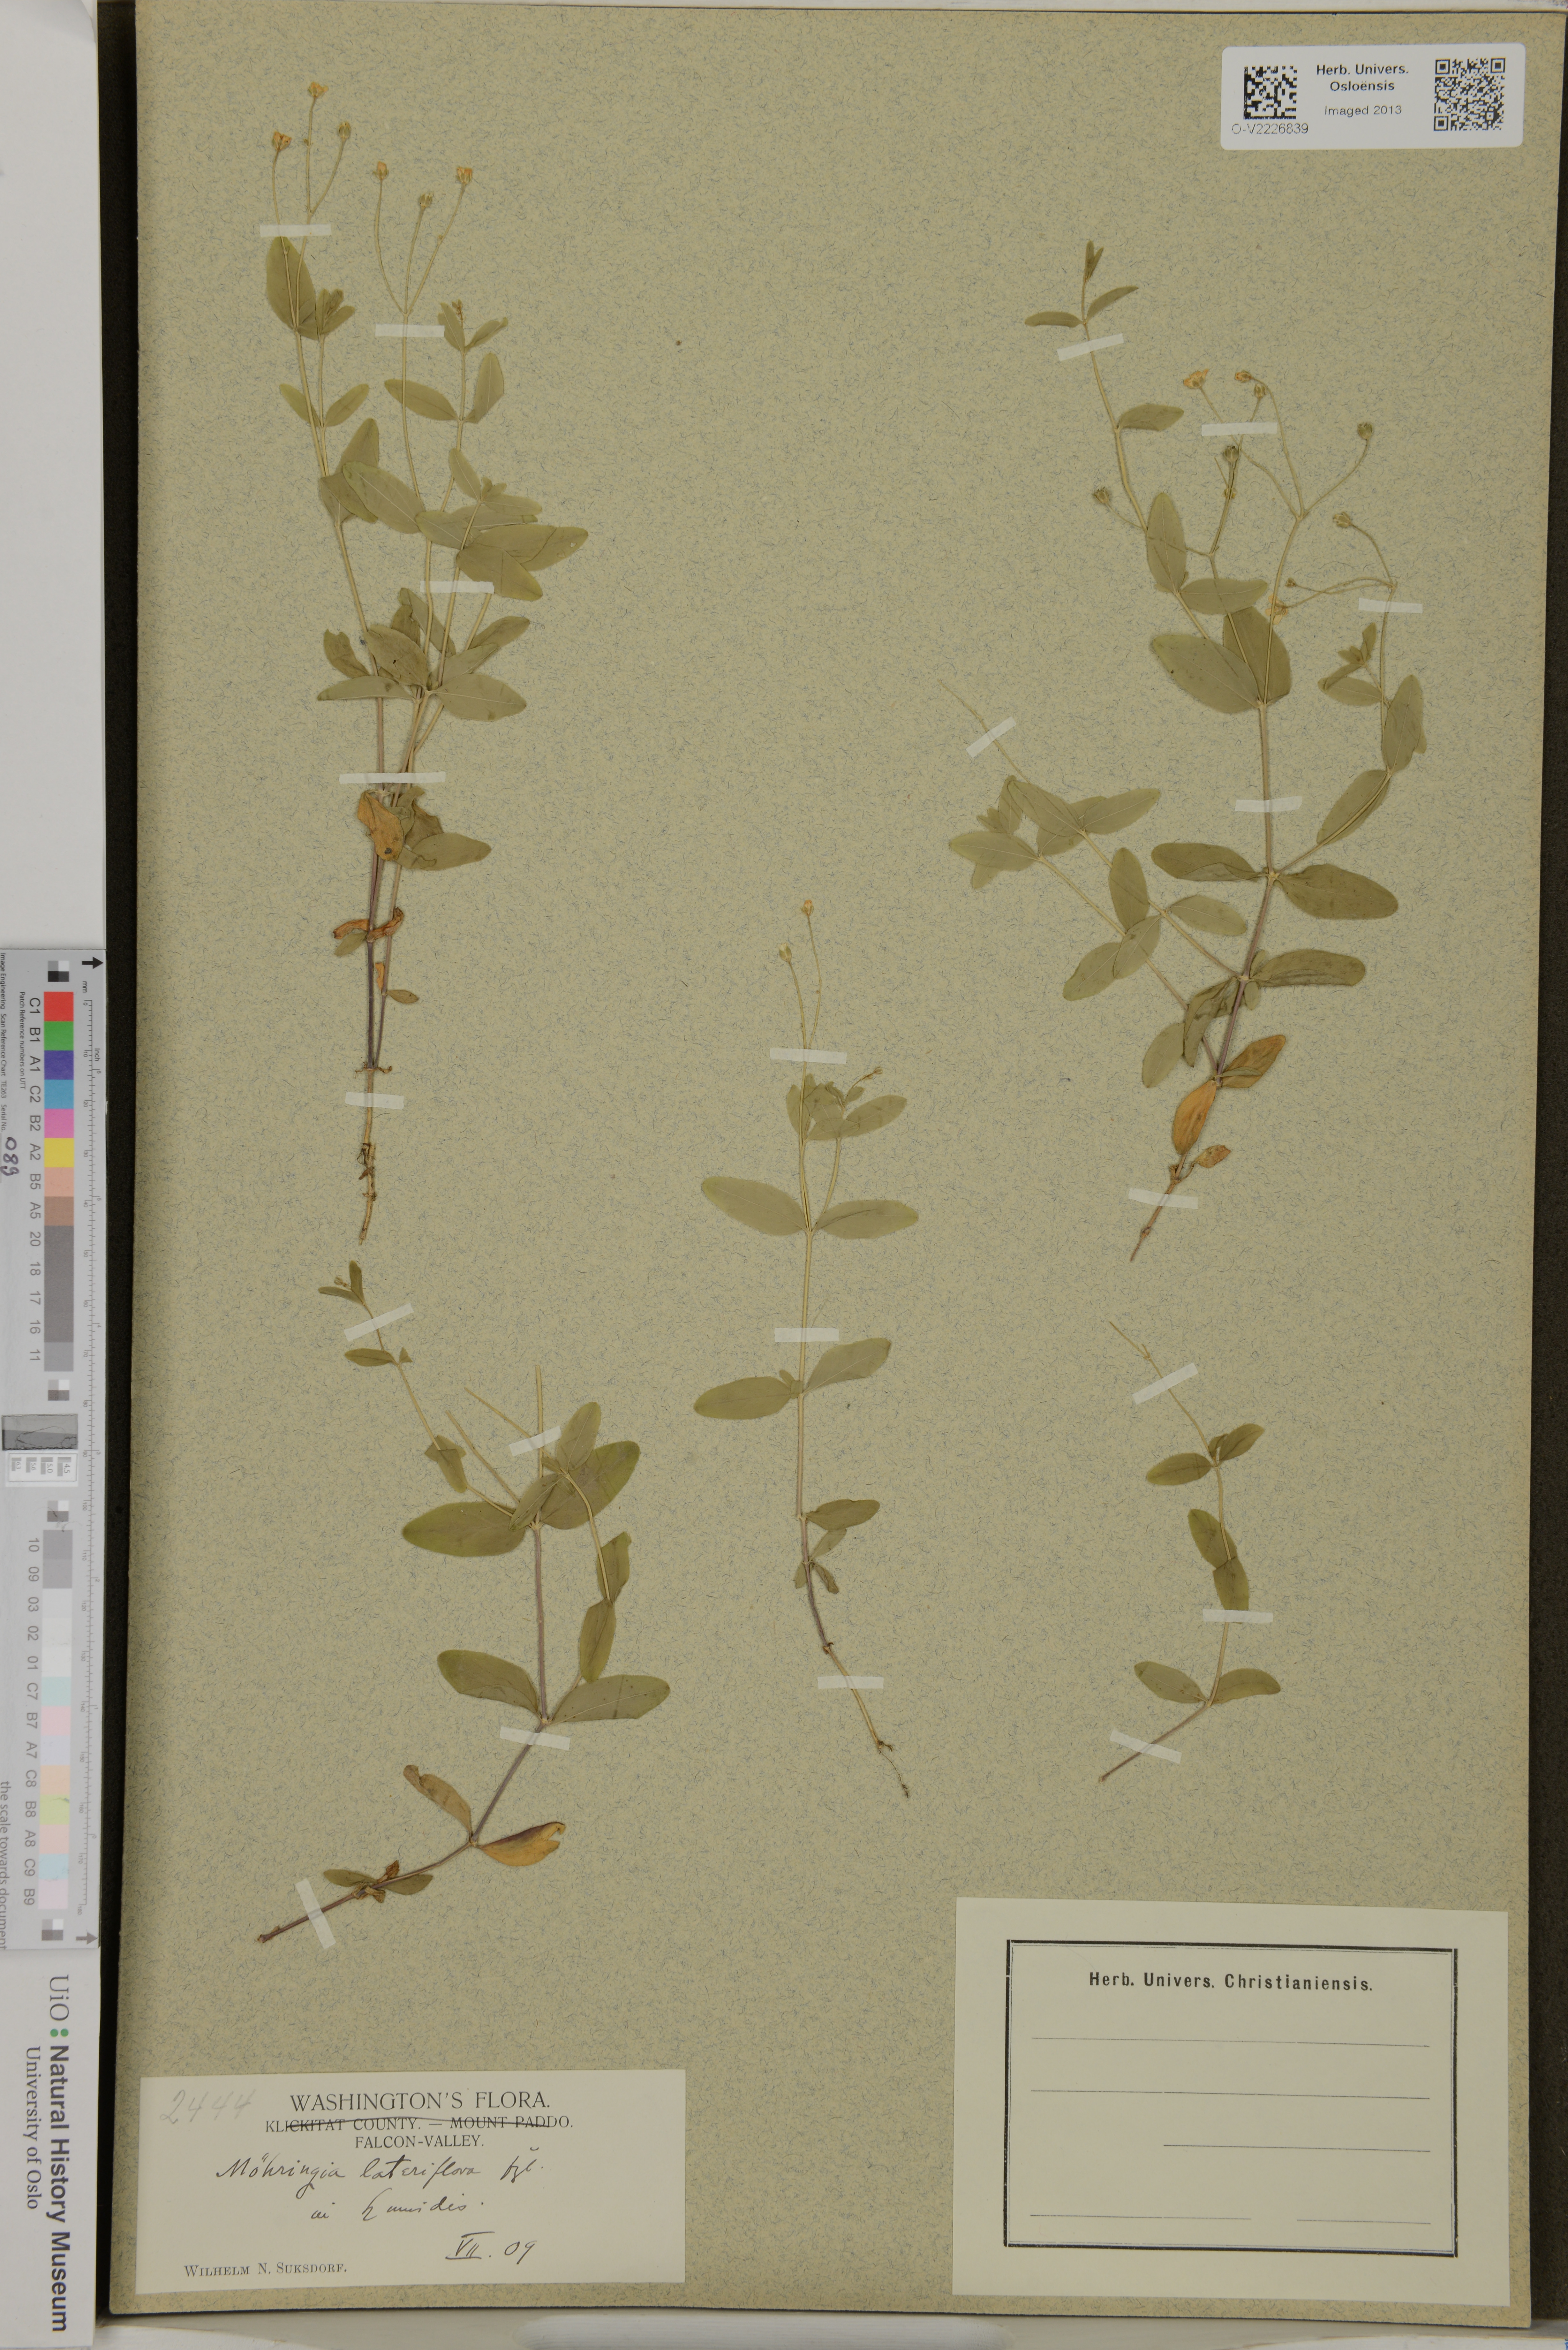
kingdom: Plantae
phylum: Tracheophyta
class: Magnoliopsida
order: Caryophyllales
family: Caryophyllaceae
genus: Moehringia
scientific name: Moehringia lateriflora
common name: Blunt-leaved sandwort
